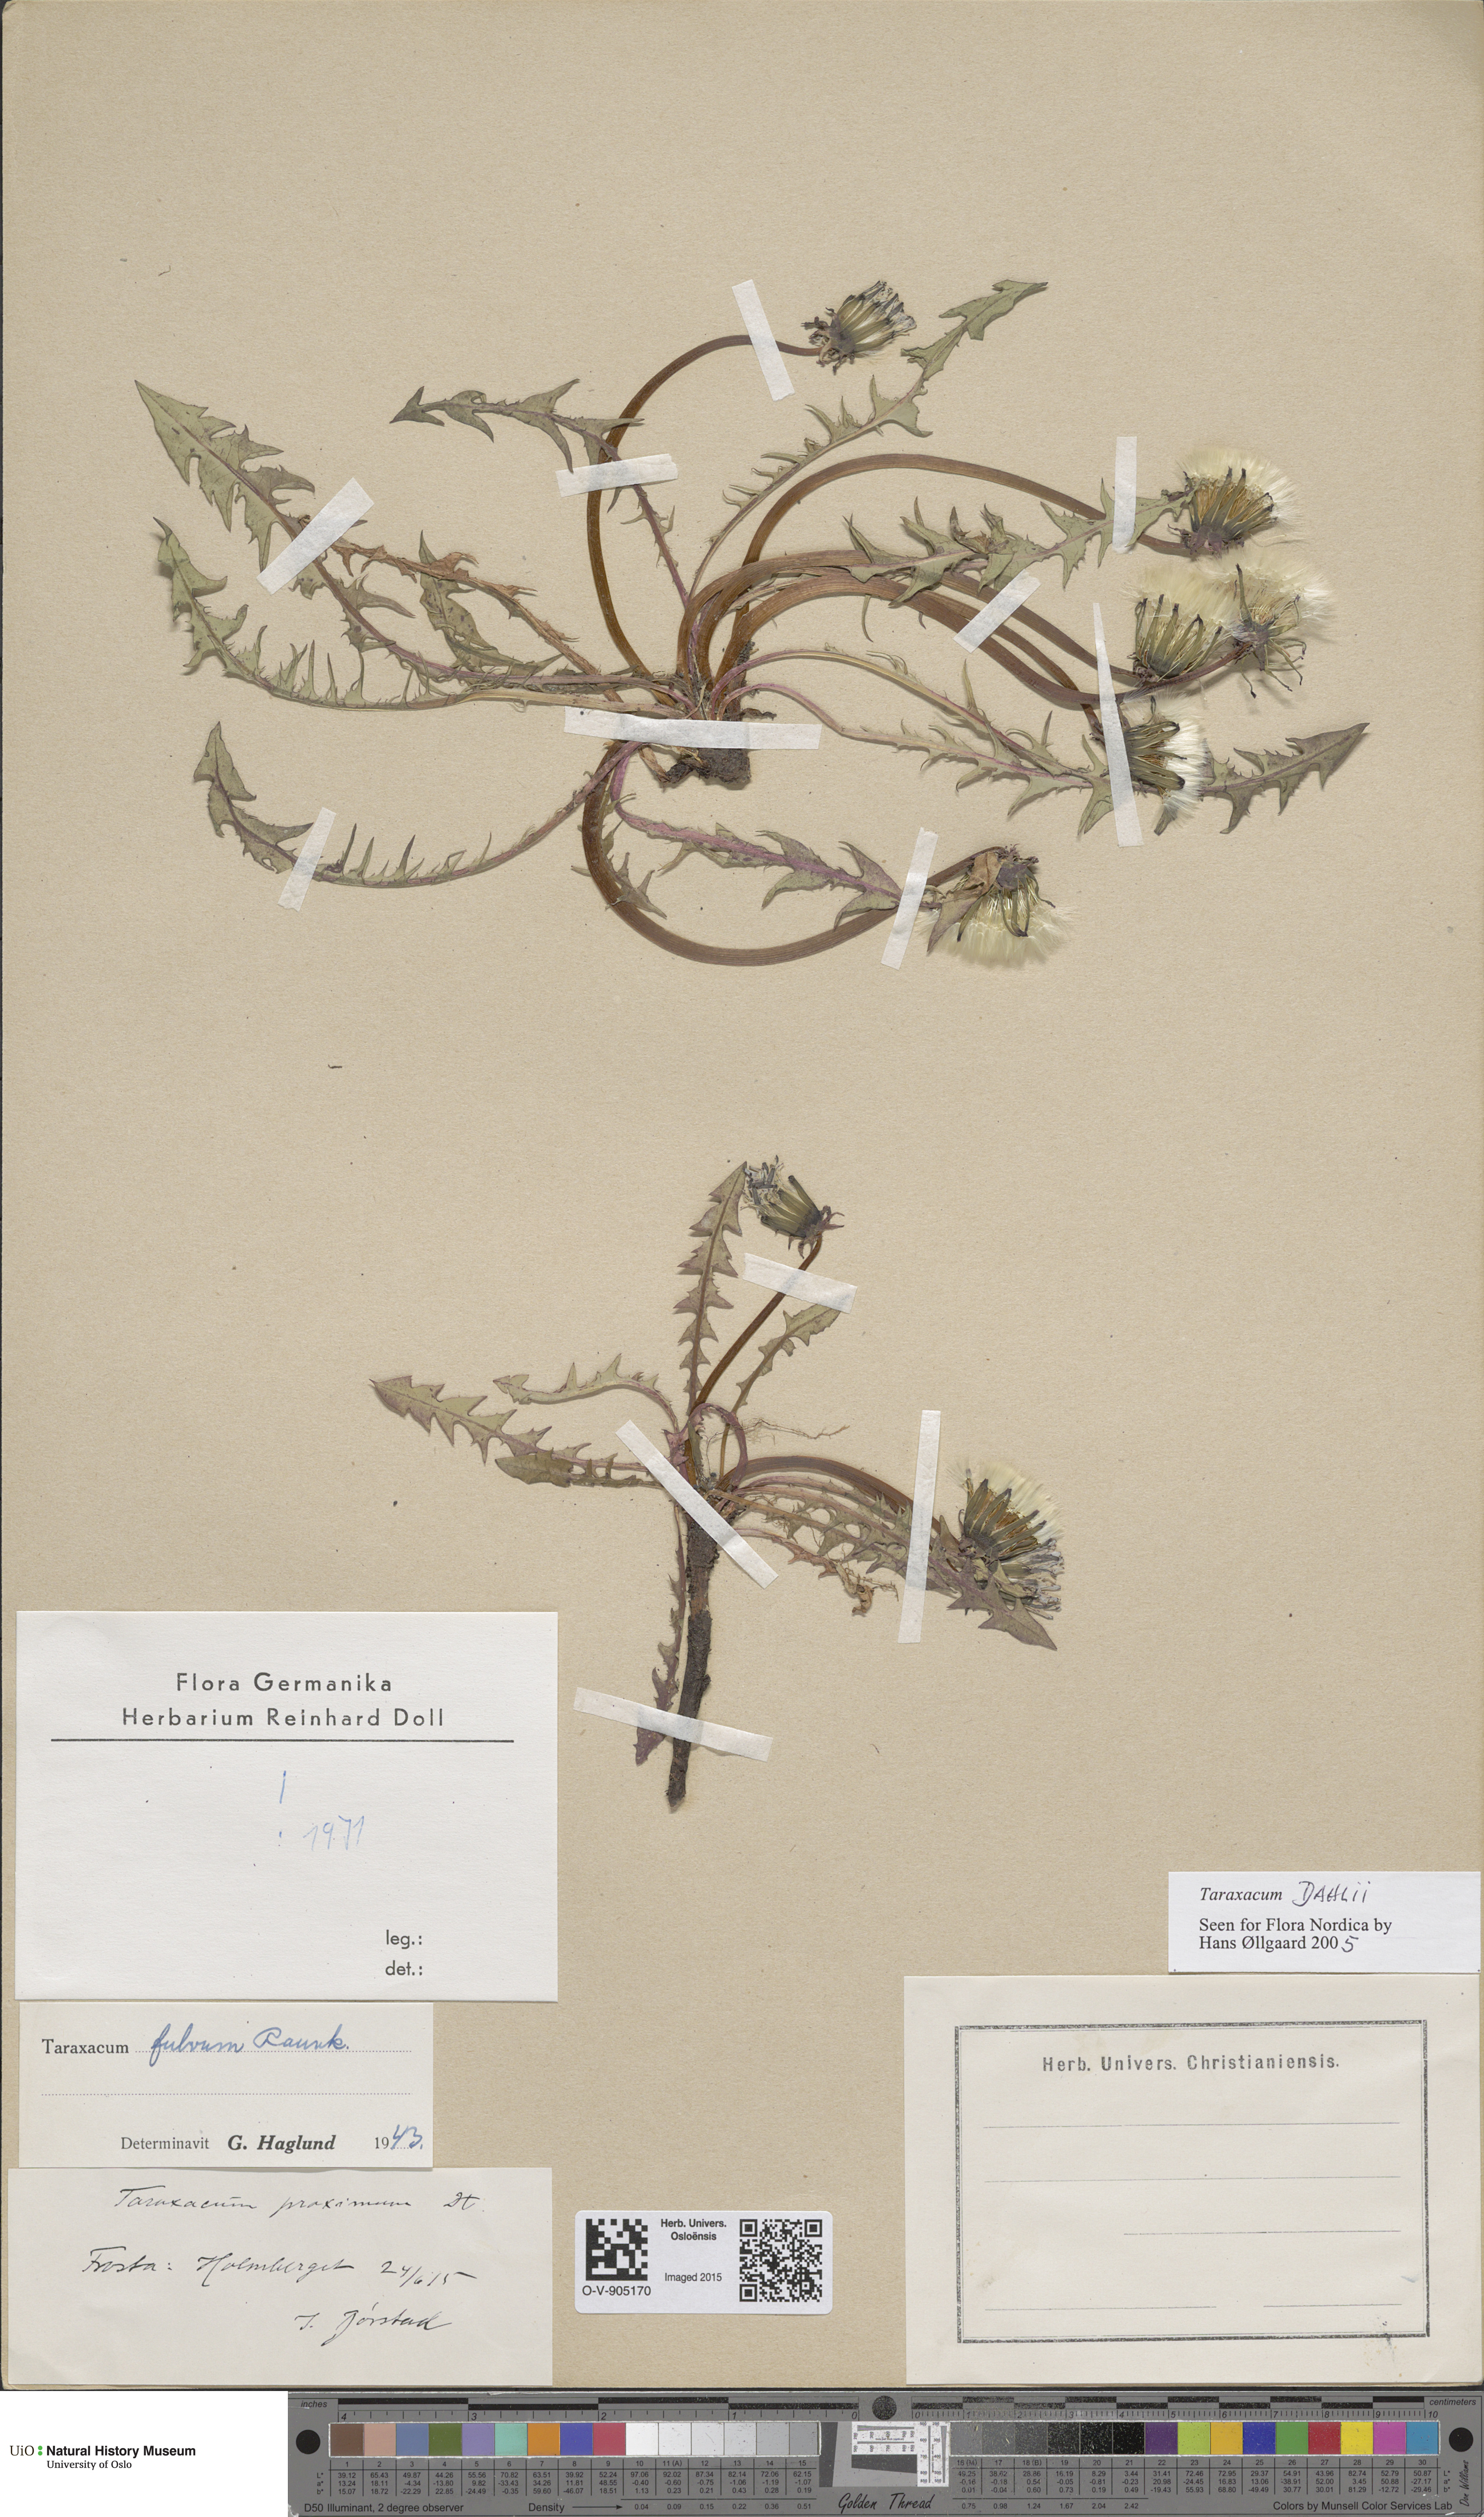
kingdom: Plantae
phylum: Tracheophyta
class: Magnoliopsida
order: Asterales
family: Asteraceae
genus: Taraxacum
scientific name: Taraxacum dahlii
